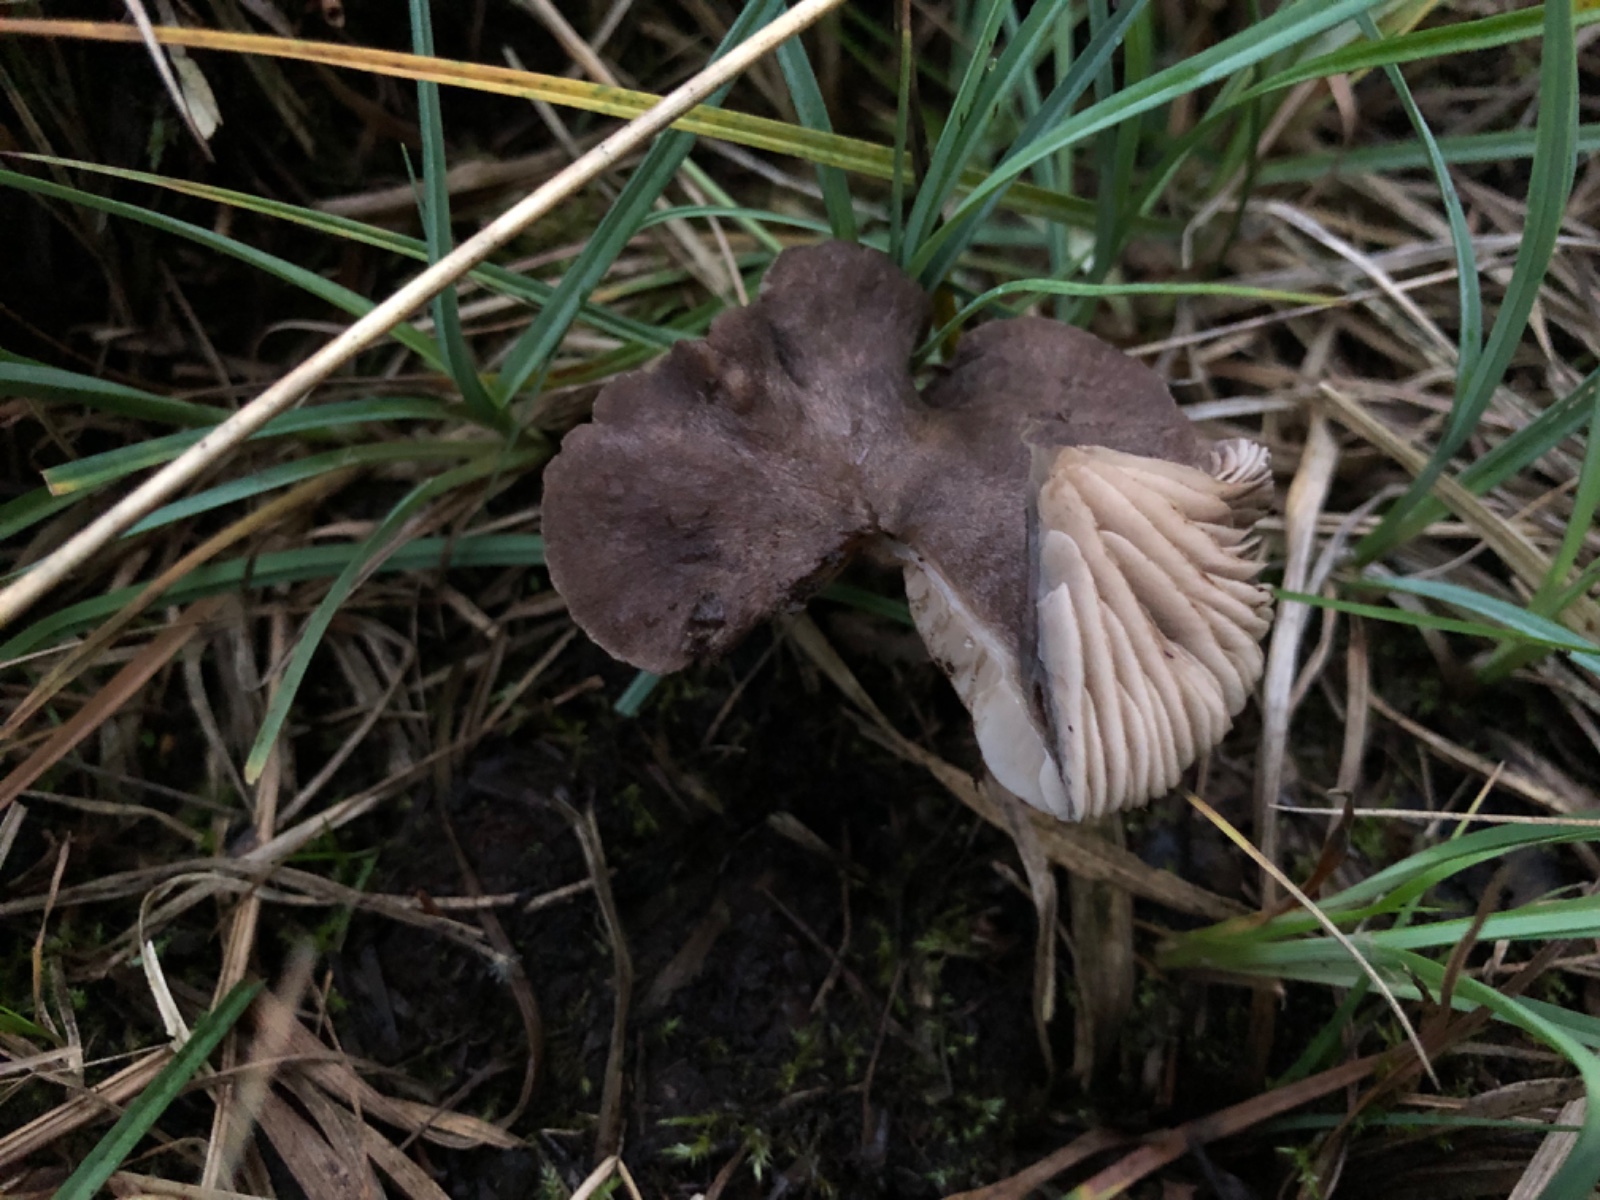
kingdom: Fungi
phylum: Basidiomycota
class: Agaricomycetes
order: Agaricales
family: Entolomataceae
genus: Entoloma
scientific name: Entoloma mougeotii
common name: violetgrå rødblad
